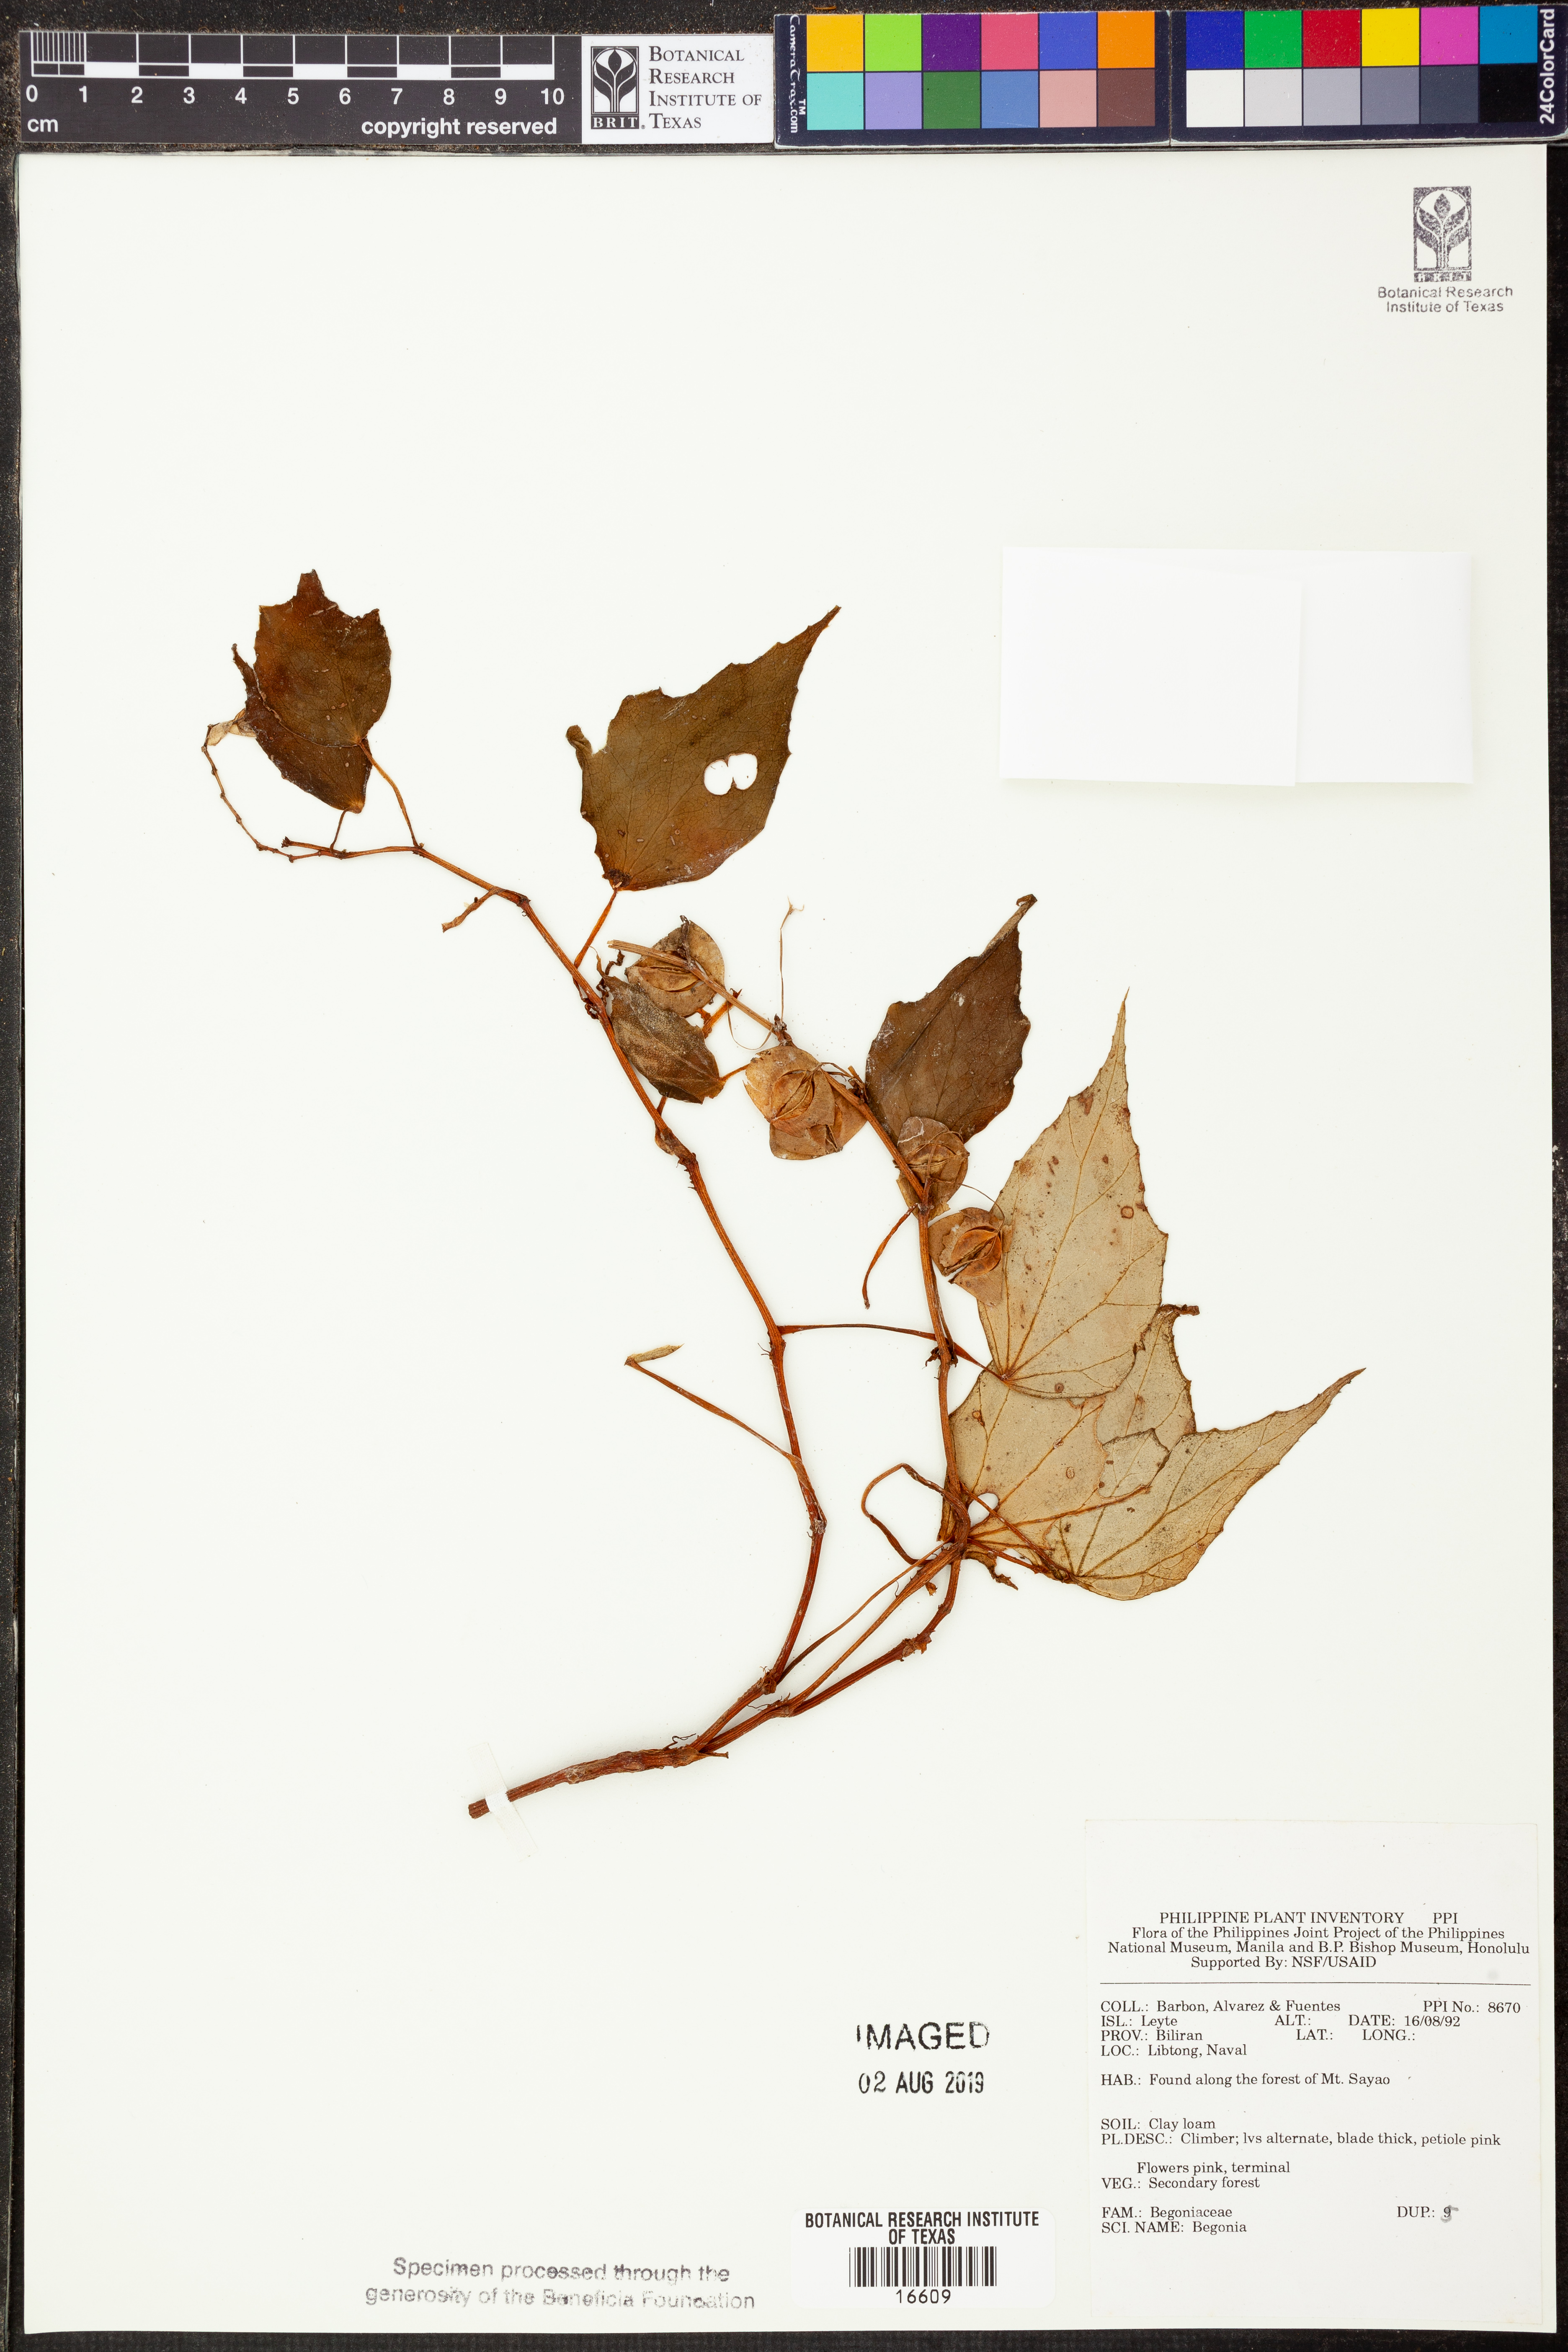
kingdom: Plantae
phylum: Tracheophyta
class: Magnoliopsida
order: Cucurbitales
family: Begoniaceae
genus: Begonia
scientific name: Begonia
